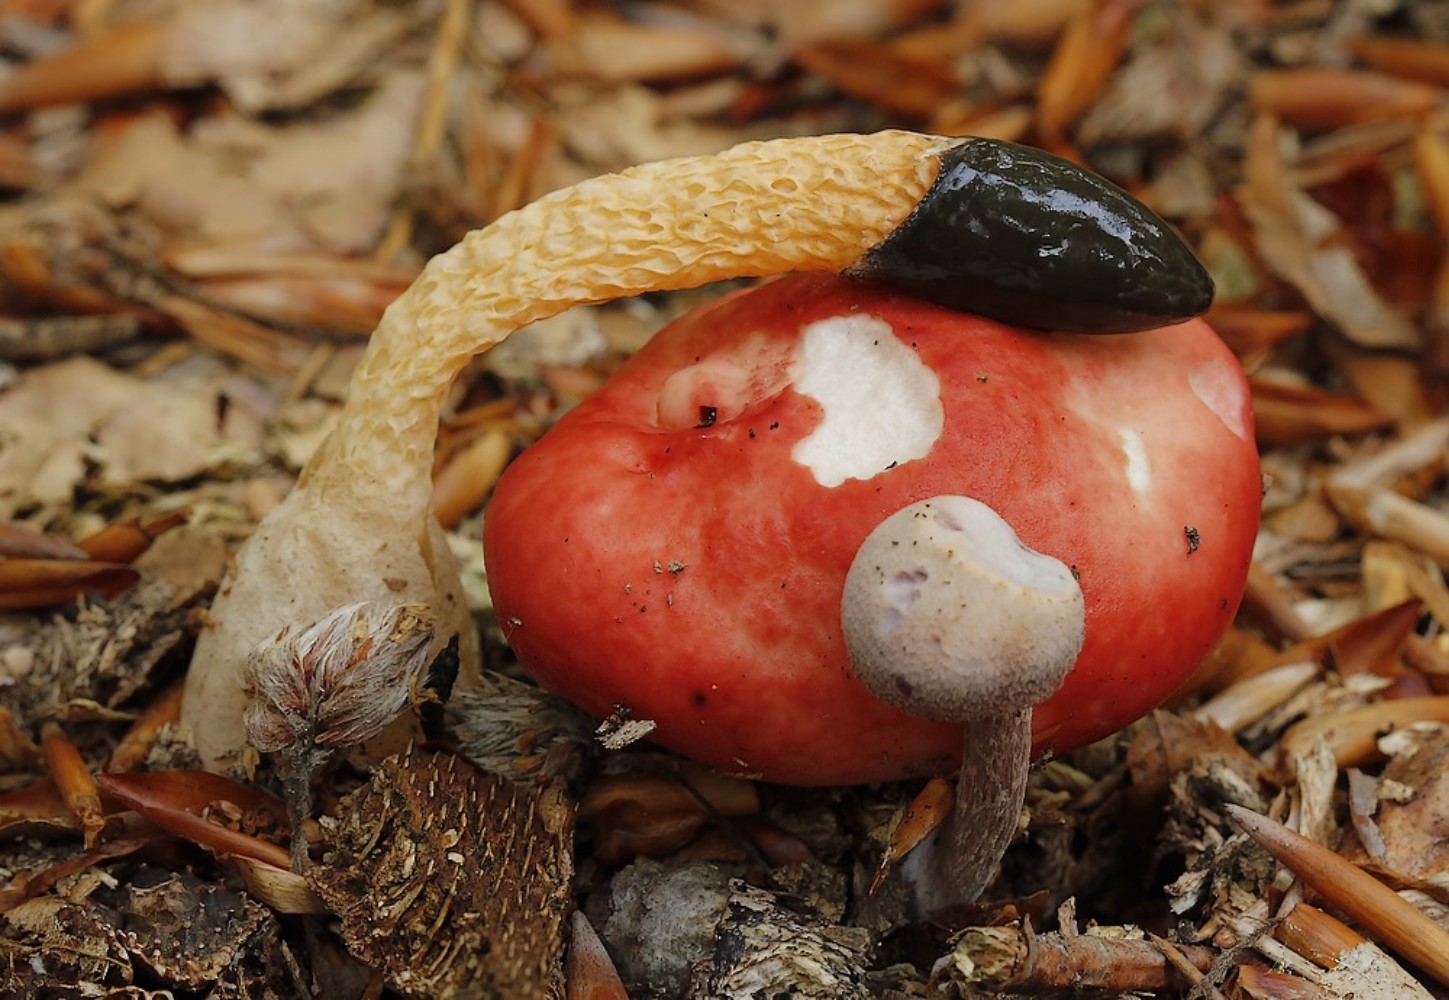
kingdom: Fungi
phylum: Basidiomycota
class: Agaricomycetes
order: Phallales
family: Phallaceae
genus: Mutinus
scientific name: Mutinus caninus
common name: hunde-stinksvamp
